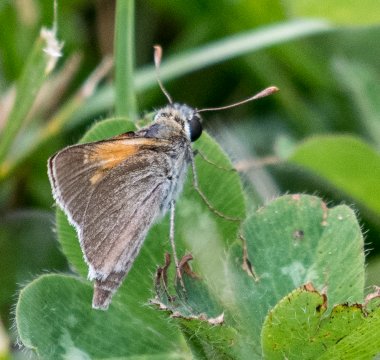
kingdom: Animalia
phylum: Arthropoda
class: Insecta
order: Lepidoptera
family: Hesperiidae
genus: Polites
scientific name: Polites themistocles
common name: Tawny-edged Skipper
